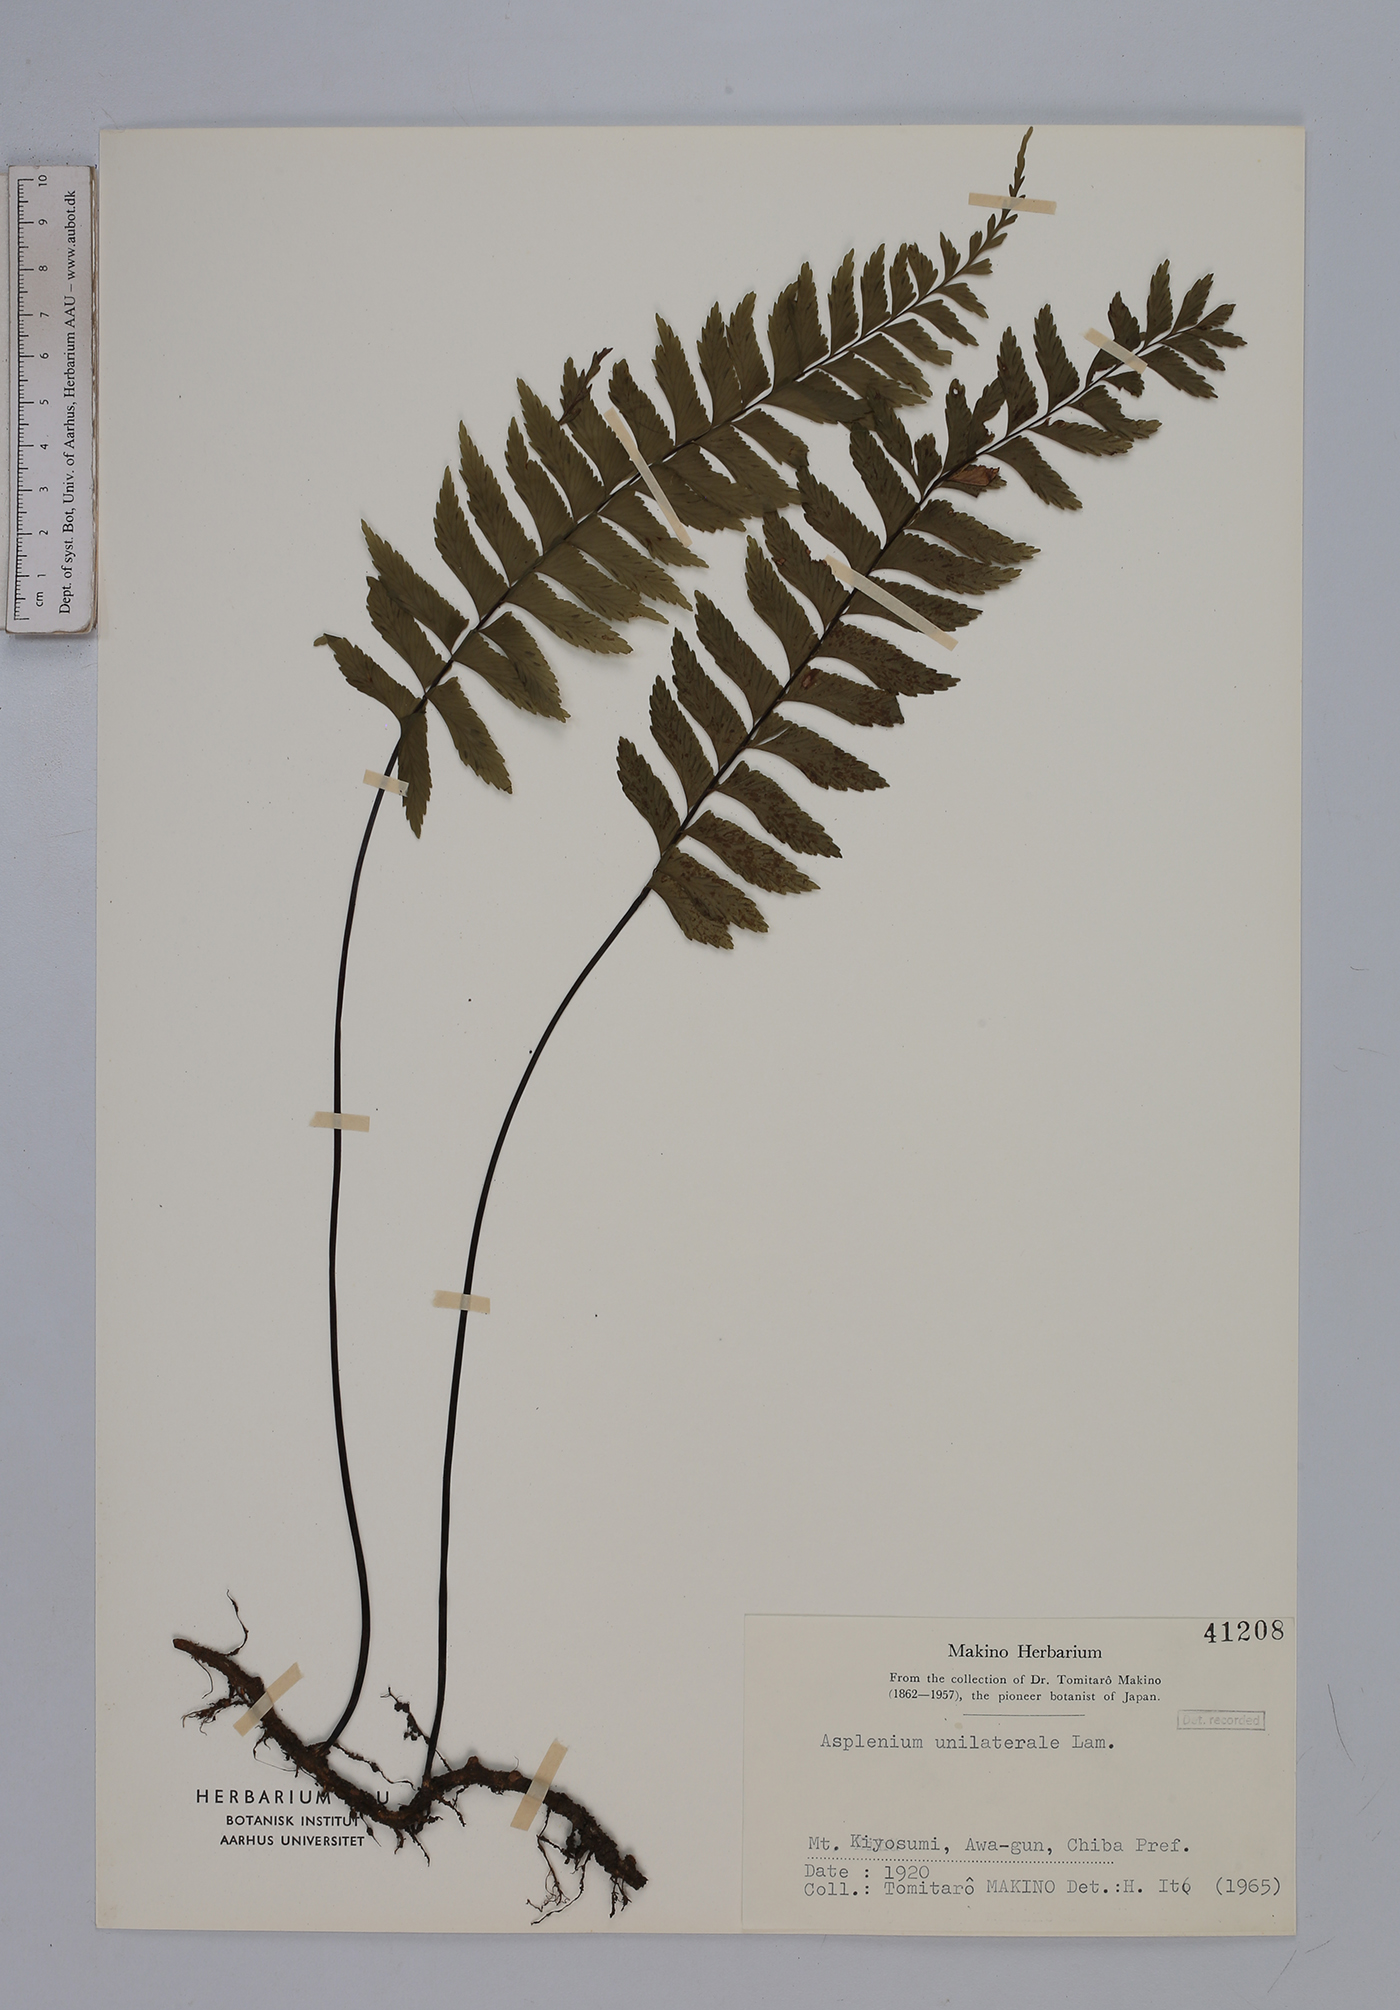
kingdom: Plantae
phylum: Tracheophyta
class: Polypodiopsida
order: Polypodiales
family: Aspleniaceae
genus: Hymenasplenium
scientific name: Hymenasplenium unilaterale
